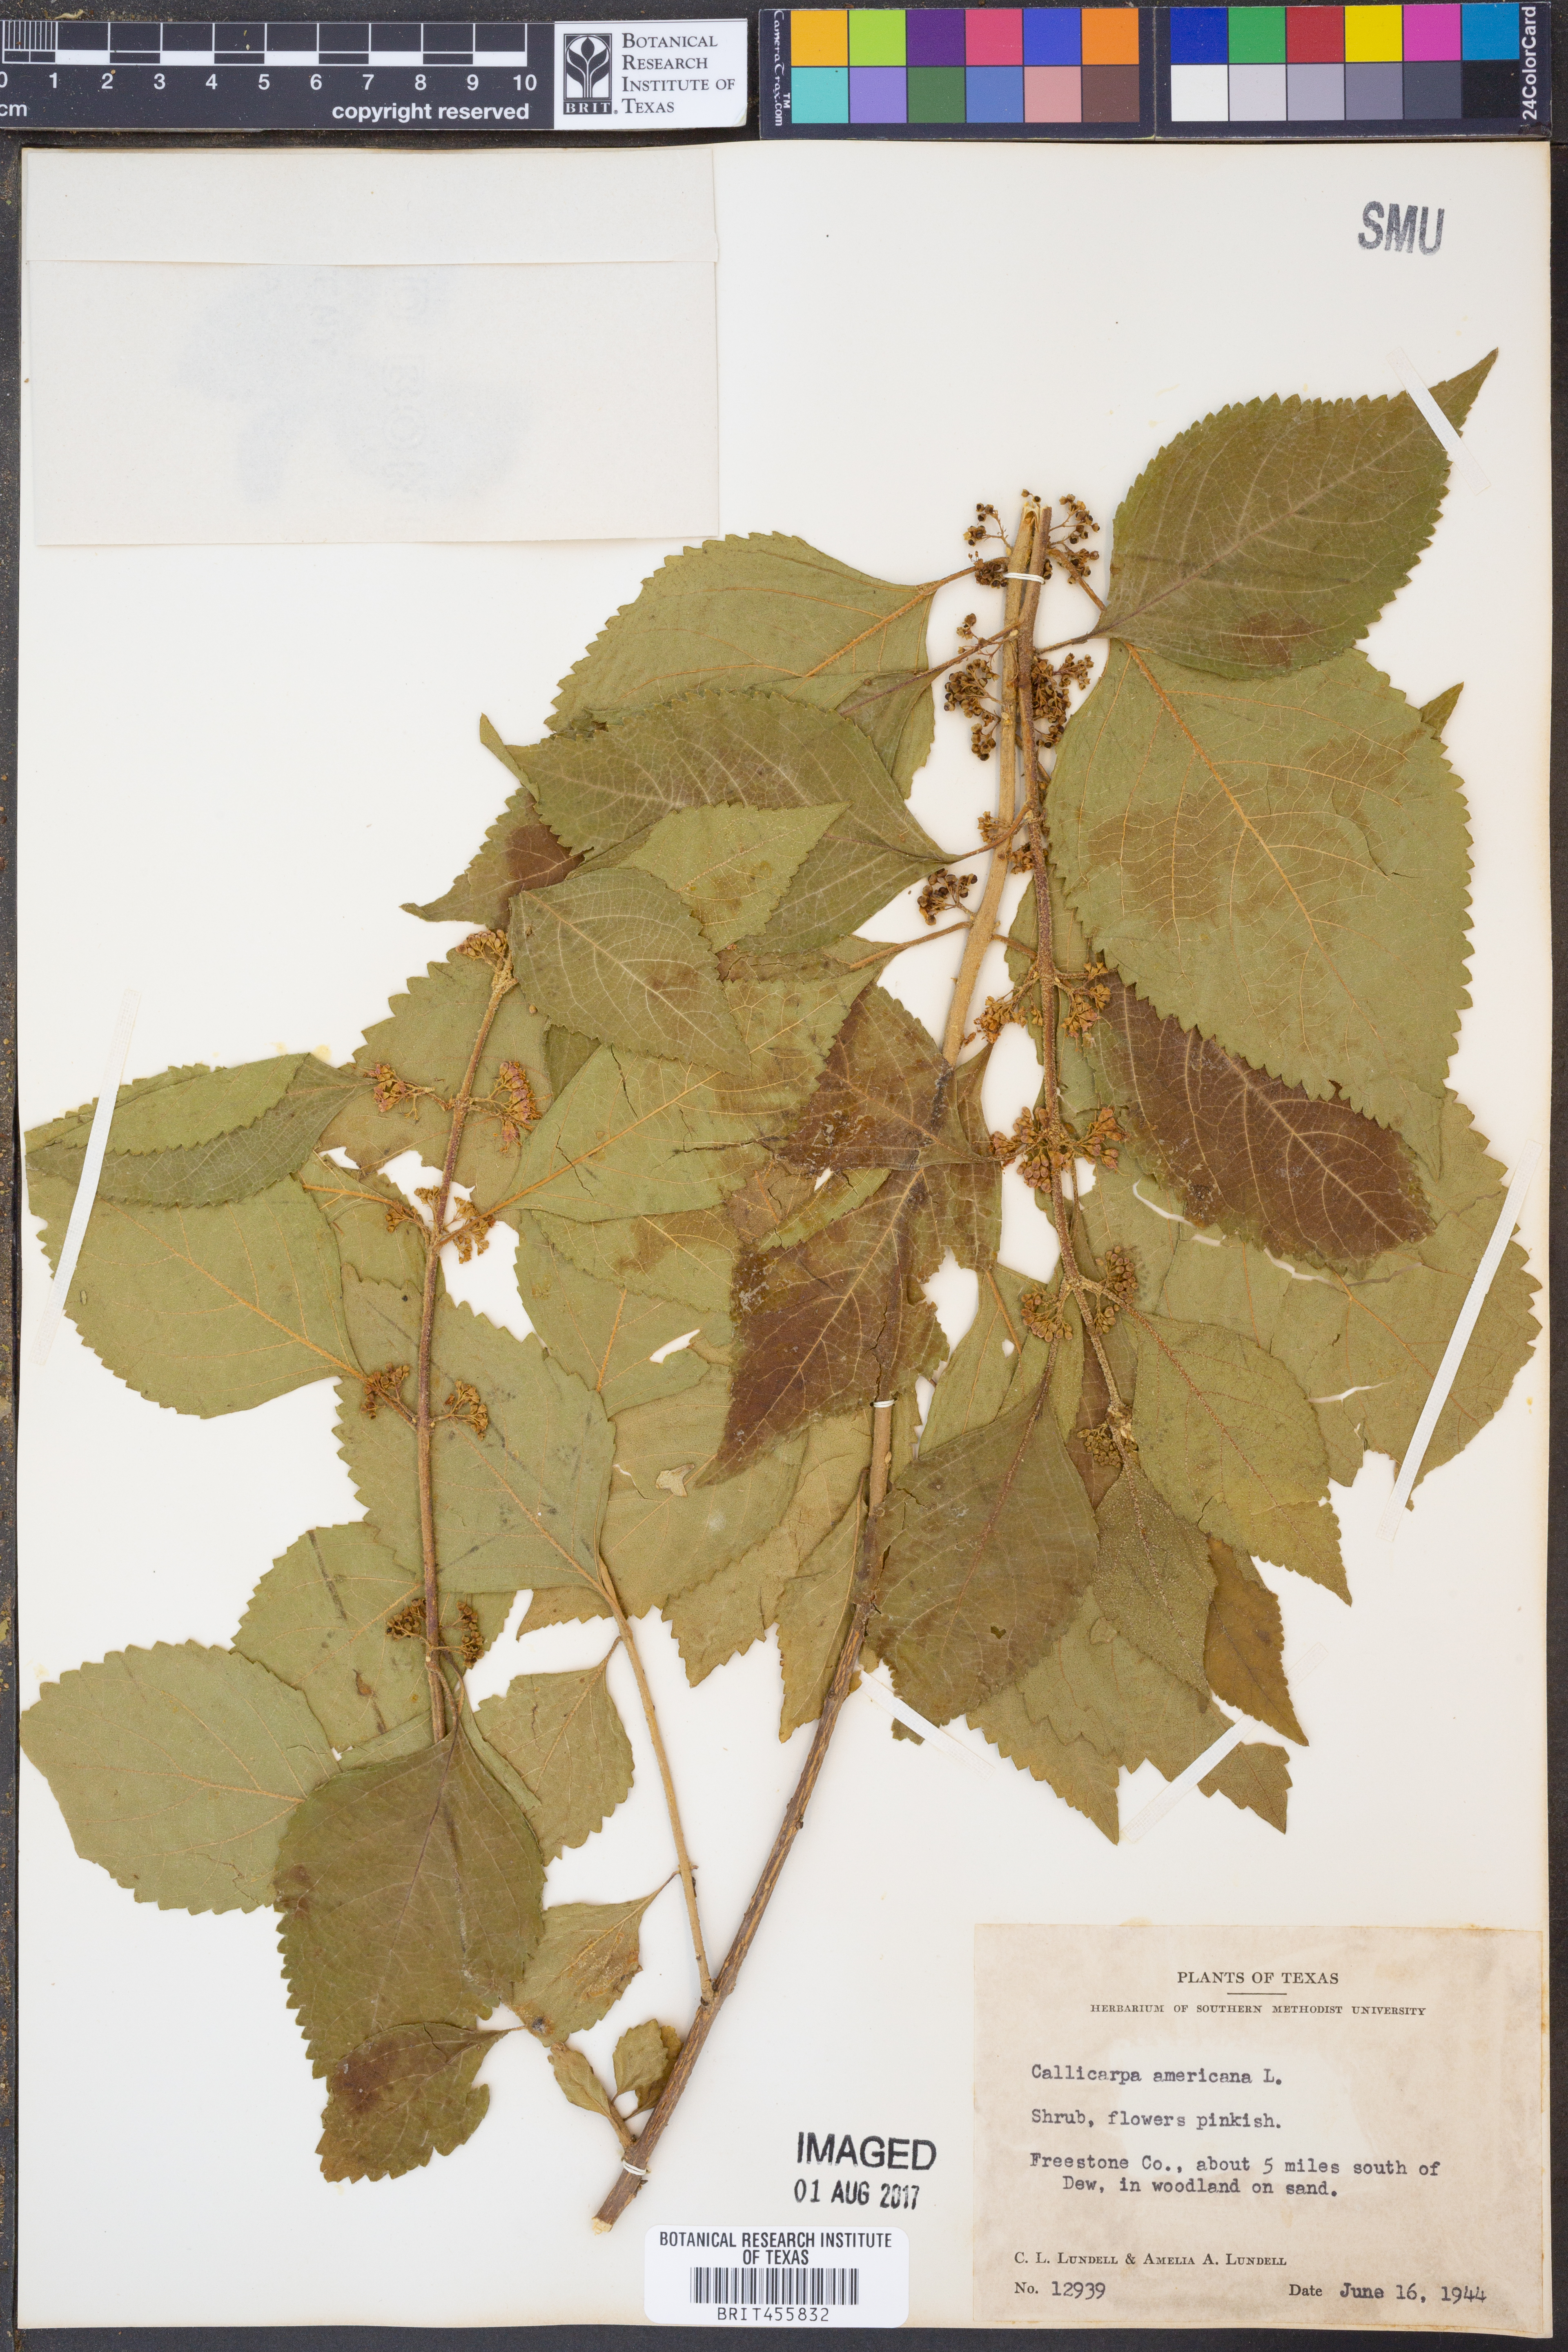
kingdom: Plantae
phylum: Tracheophyta
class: Magnoliopsida
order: Lamiales
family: Lamiaceae
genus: Callicarpa
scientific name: Callicarpa americana
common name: American beautyberry
